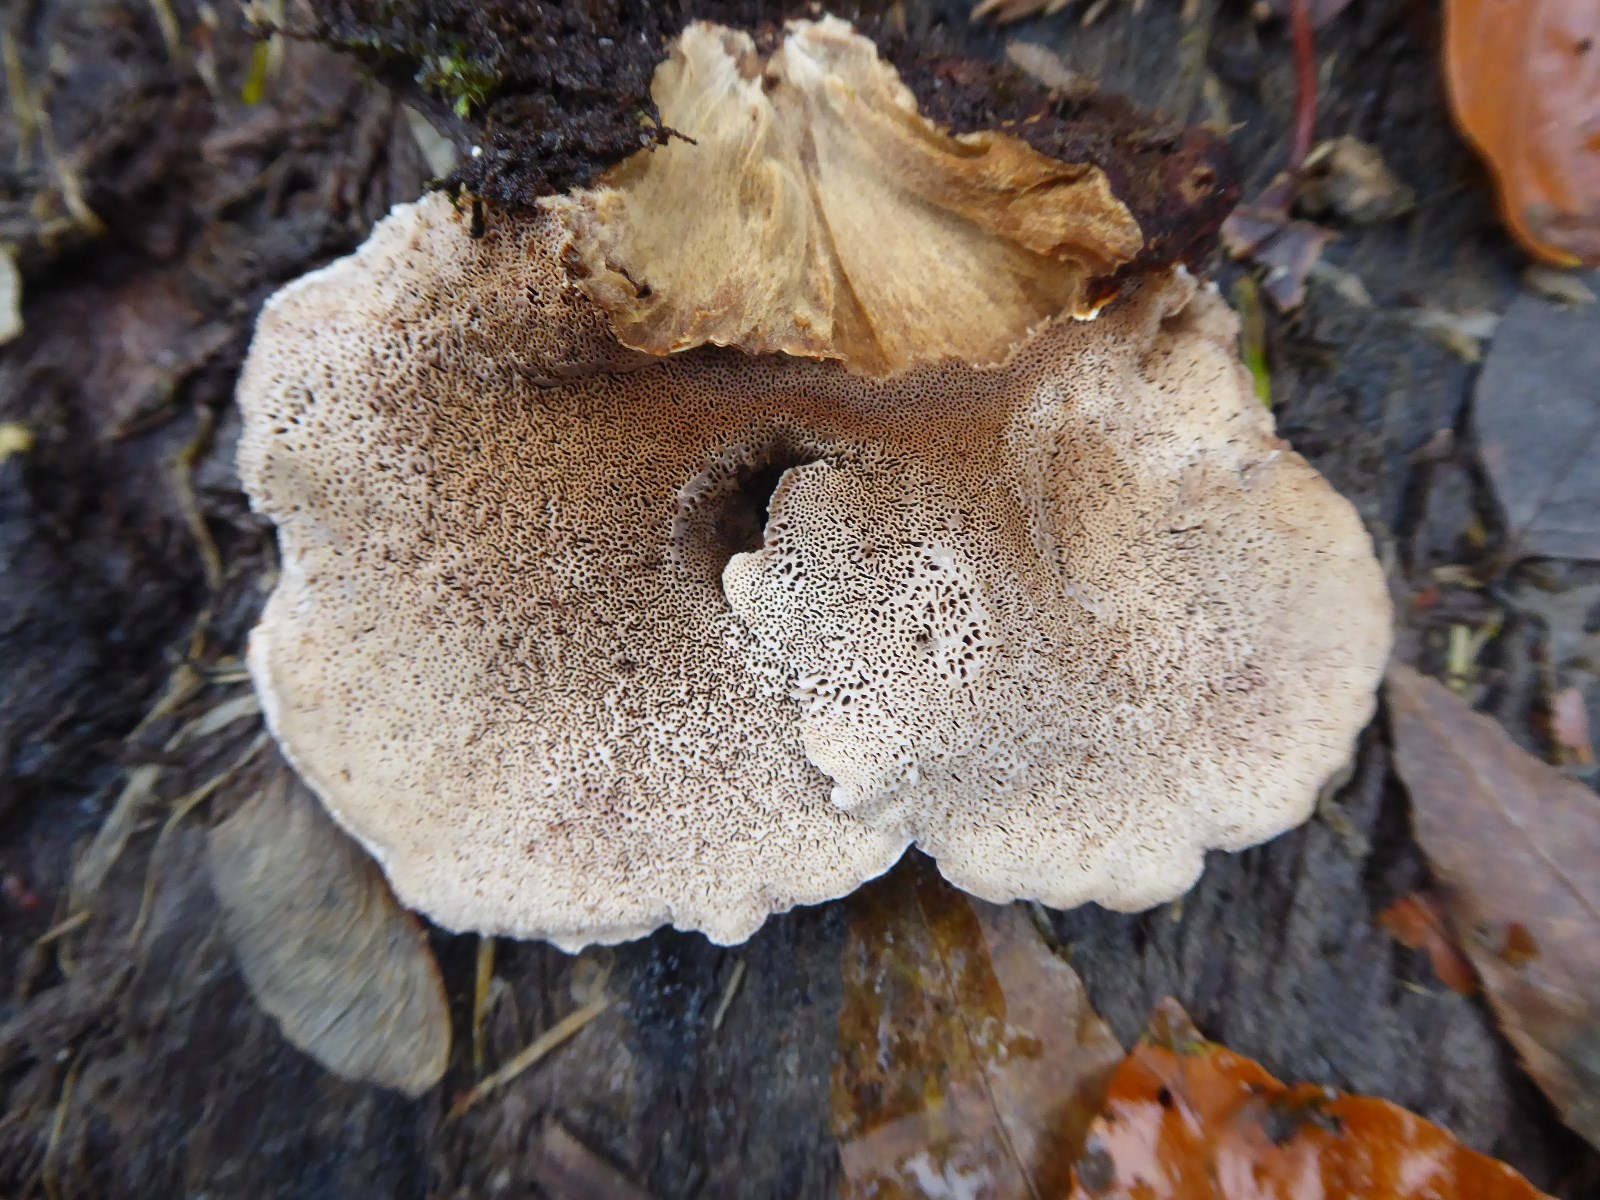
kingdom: Fungi
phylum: Basidiomycota
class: Agaricomycetes
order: Polyporales
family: Ischnodermataceae
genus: Ischnoderma
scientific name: Ischnoderma resinosum
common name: løv-tjæreporesvamp
